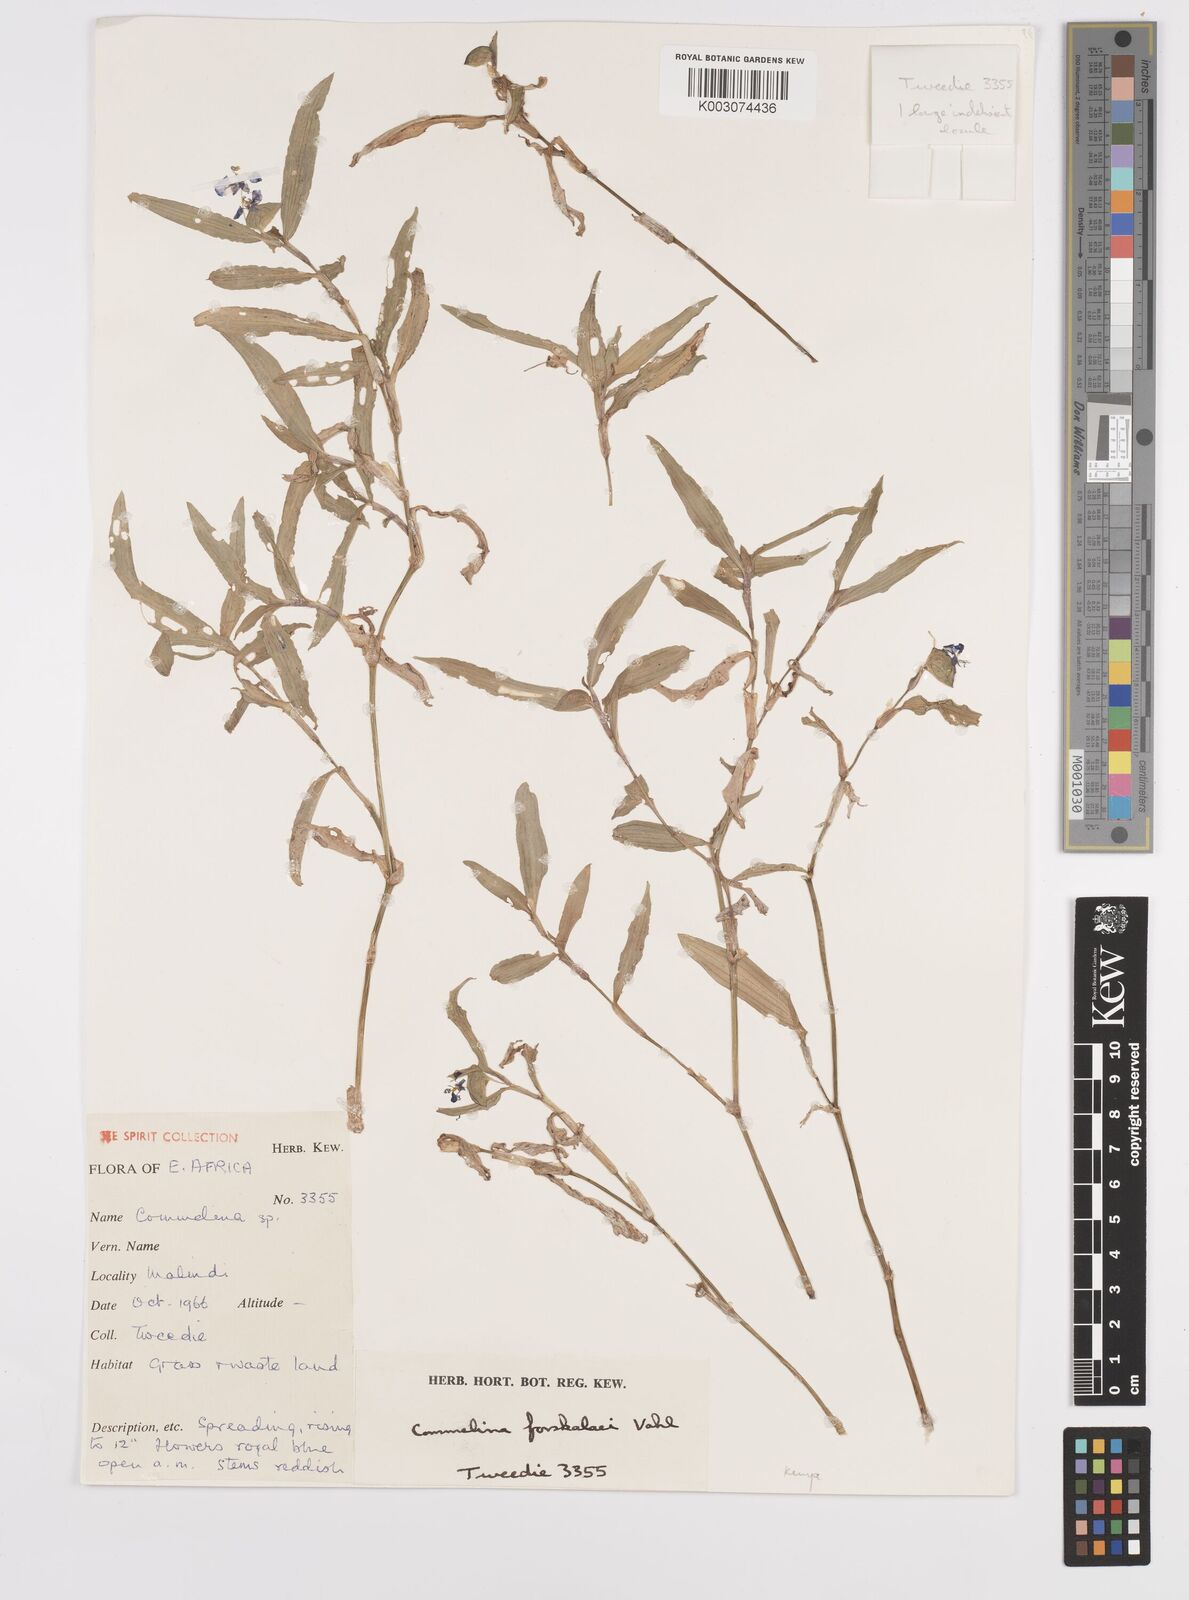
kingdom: Plantae
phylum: Tracheophyta
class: Liliopsida
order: Commelinales
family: Commelinaceae
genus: Commelina
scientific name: Commelina forskaolii
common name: Rat's ear
